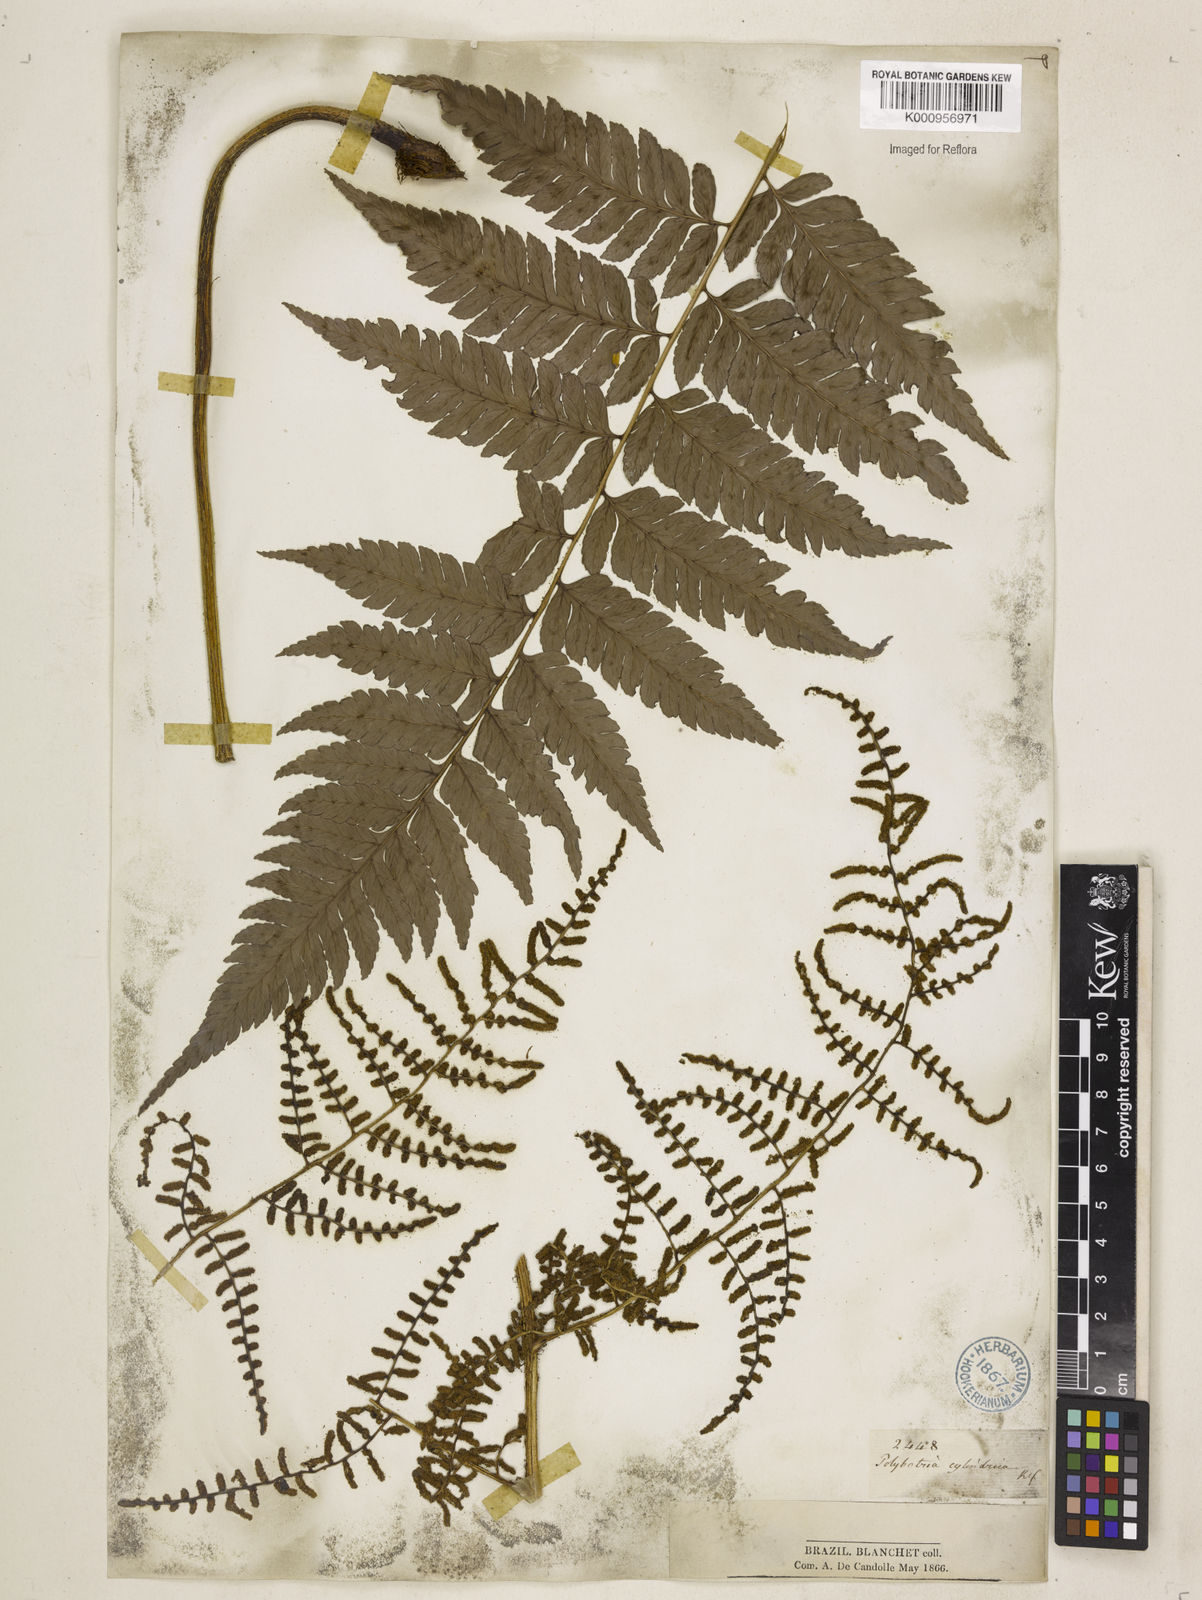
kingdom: Plantae
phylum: Tracheophyta
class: Polypodiopsida
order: Polypodiales
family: Dryopteridaceae
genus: Polybotrya
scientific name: Polybotrya osmundacea
